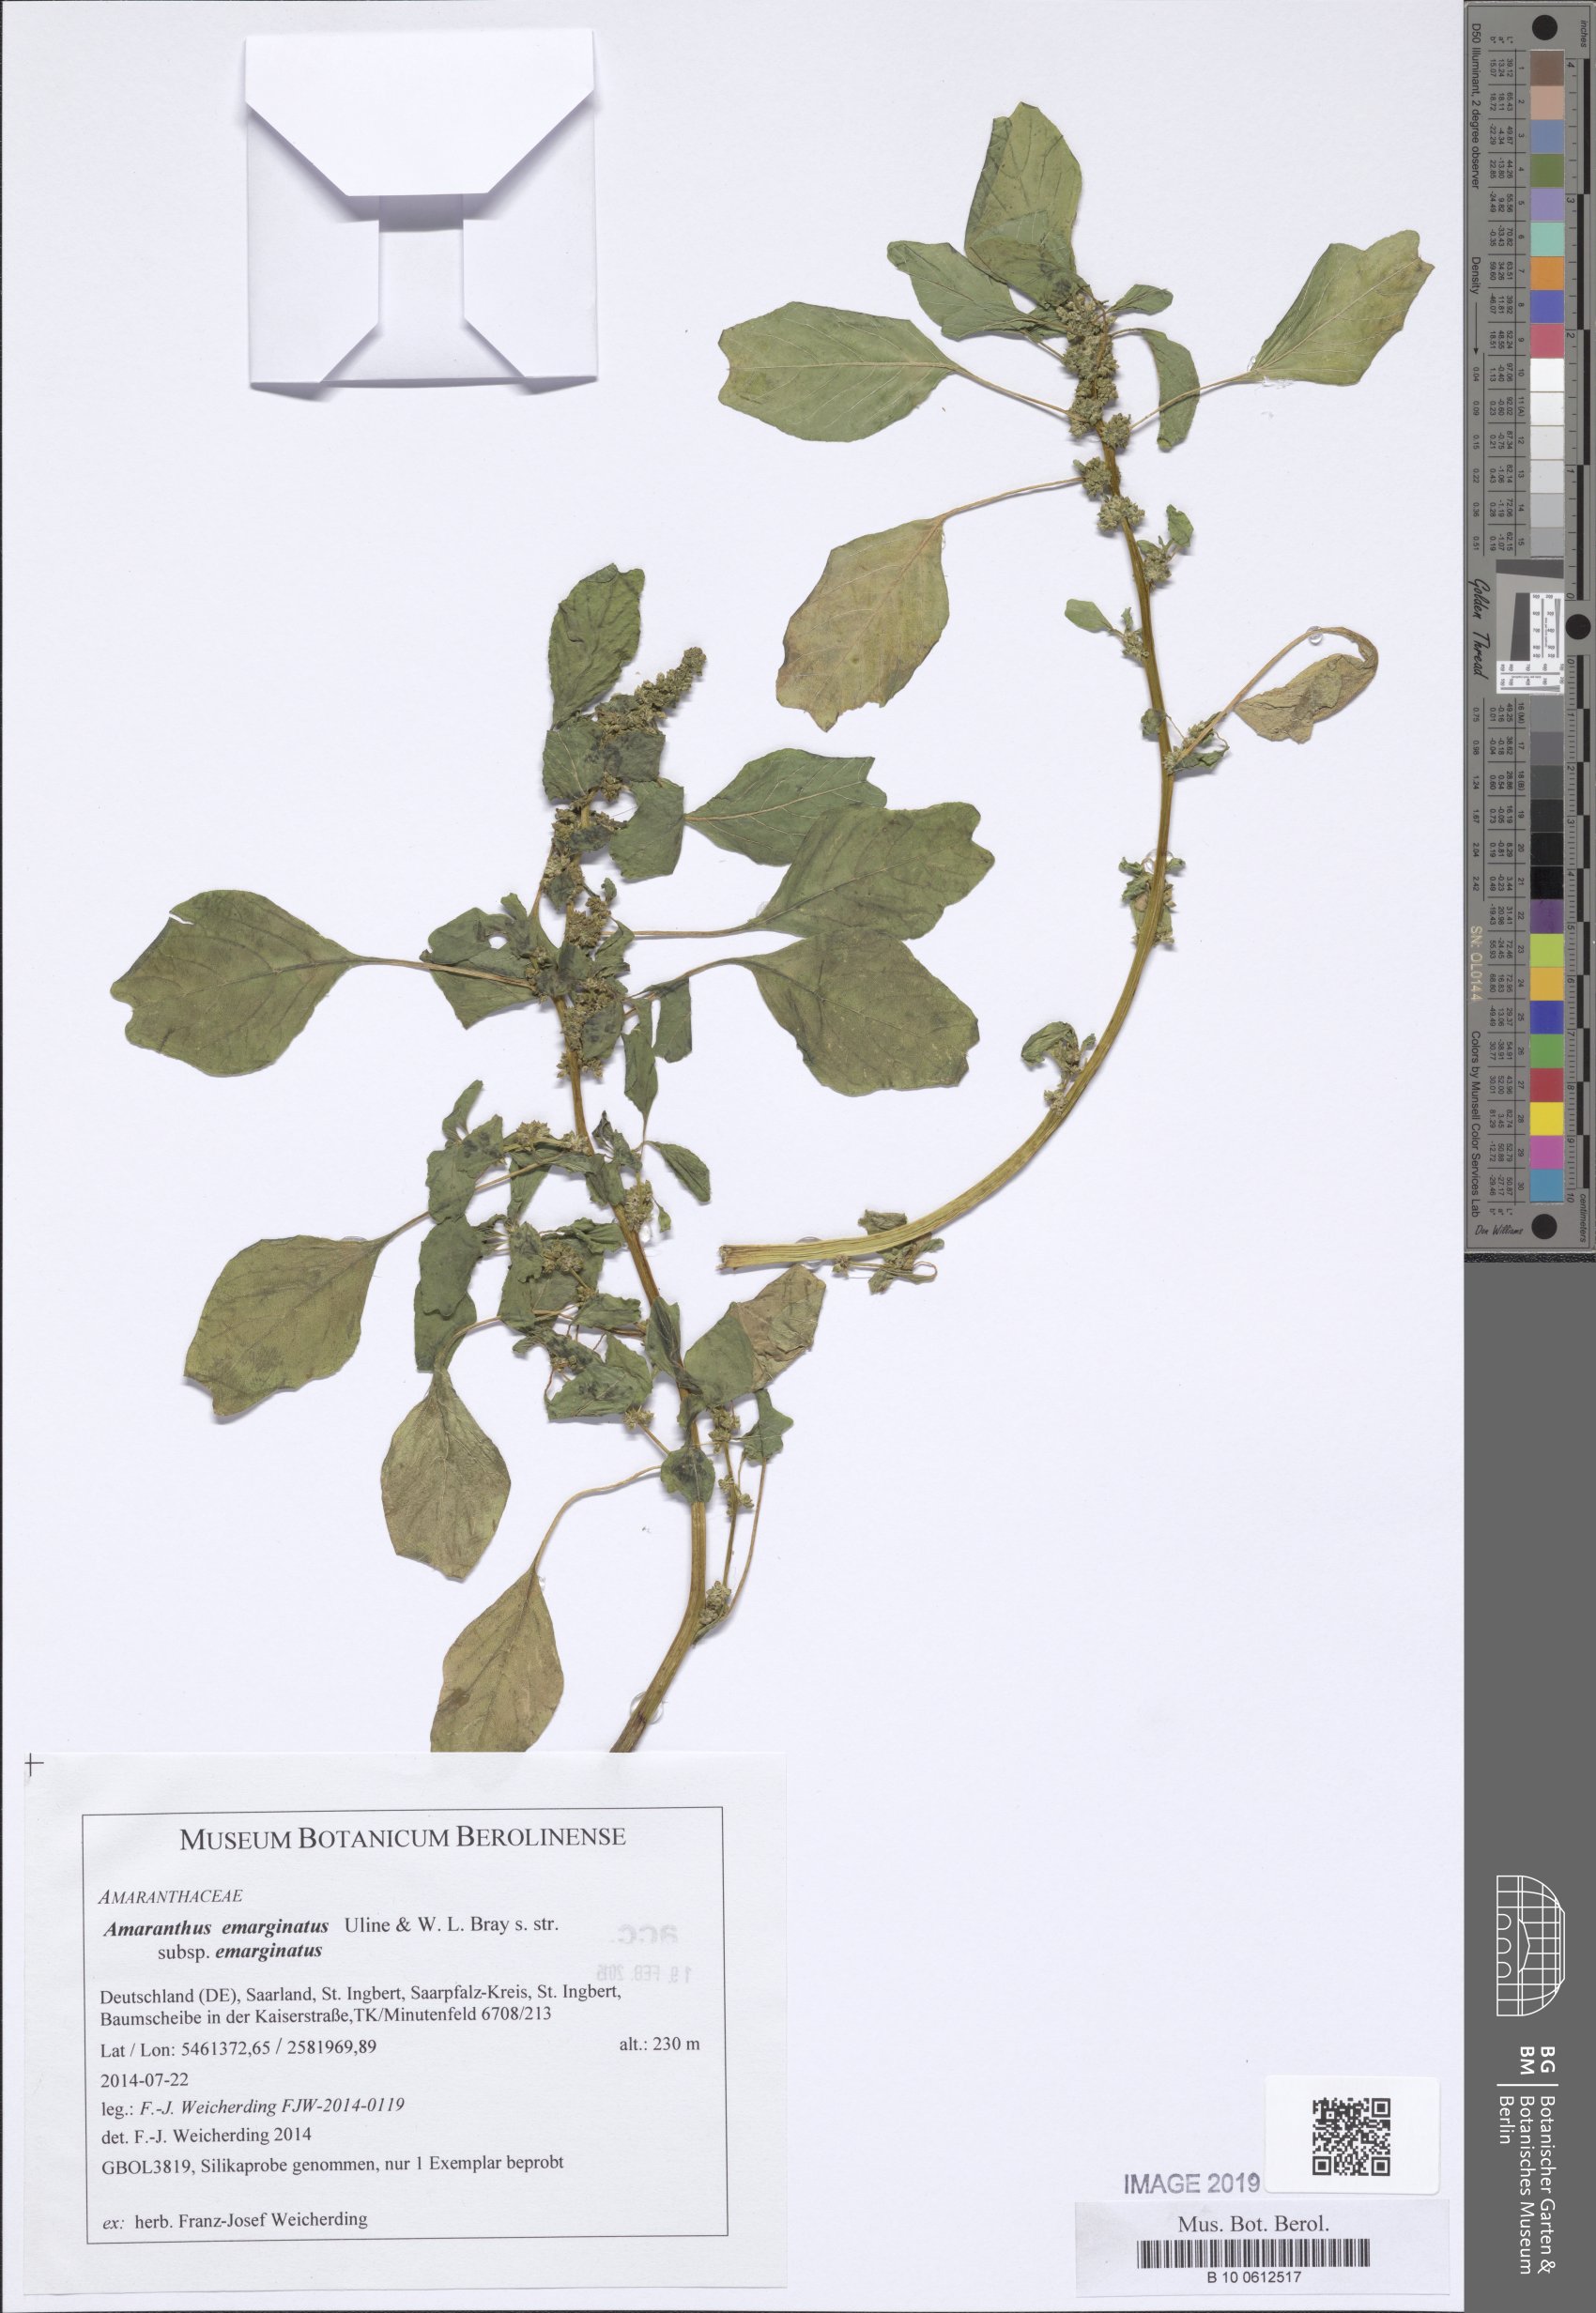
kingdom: Plantae
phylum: Tracheophyta
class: Magnoliopsida
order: Caryophyllales
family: Amaranthaceae
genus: Amaranthus
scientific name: Amaranthus emarginatus
